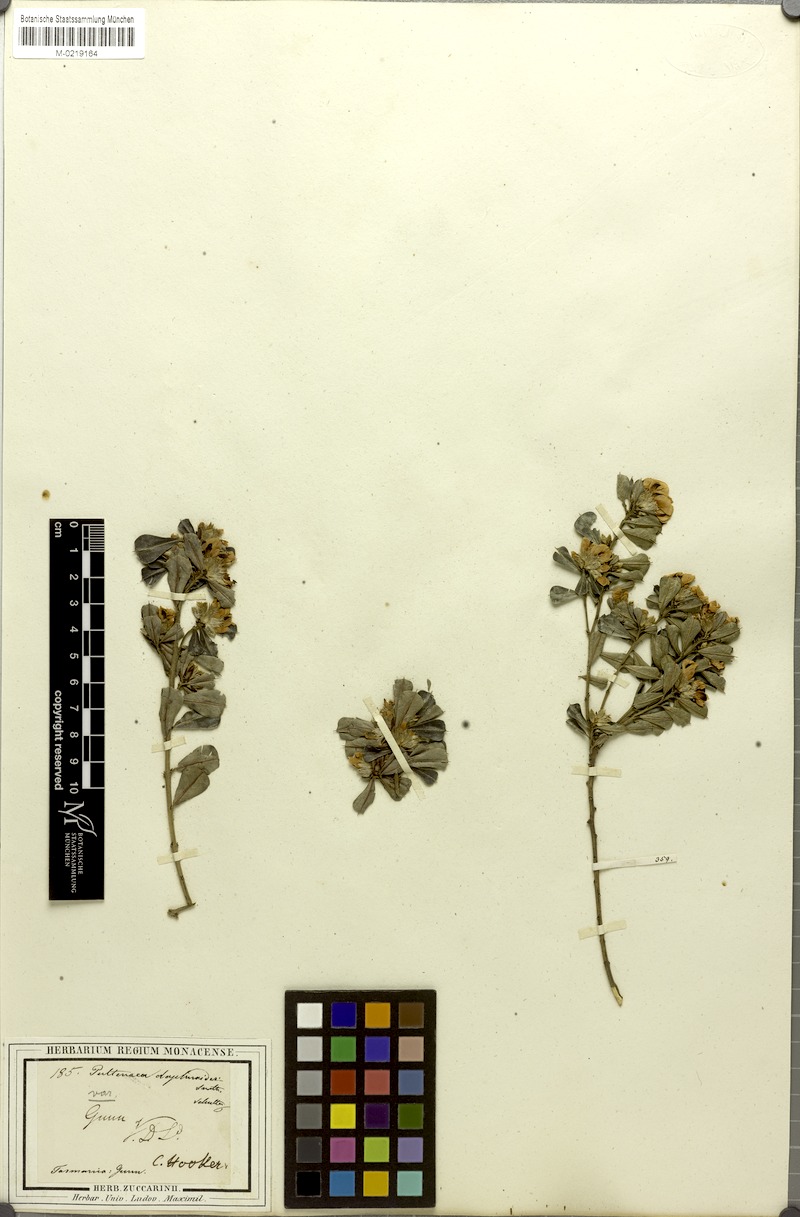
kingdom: Plantae
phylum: Tracheophyta
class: Magnoliopsida
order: Fabales
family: Fabaceae
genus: Pultenaea
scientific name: Pultenaea daphnoides
